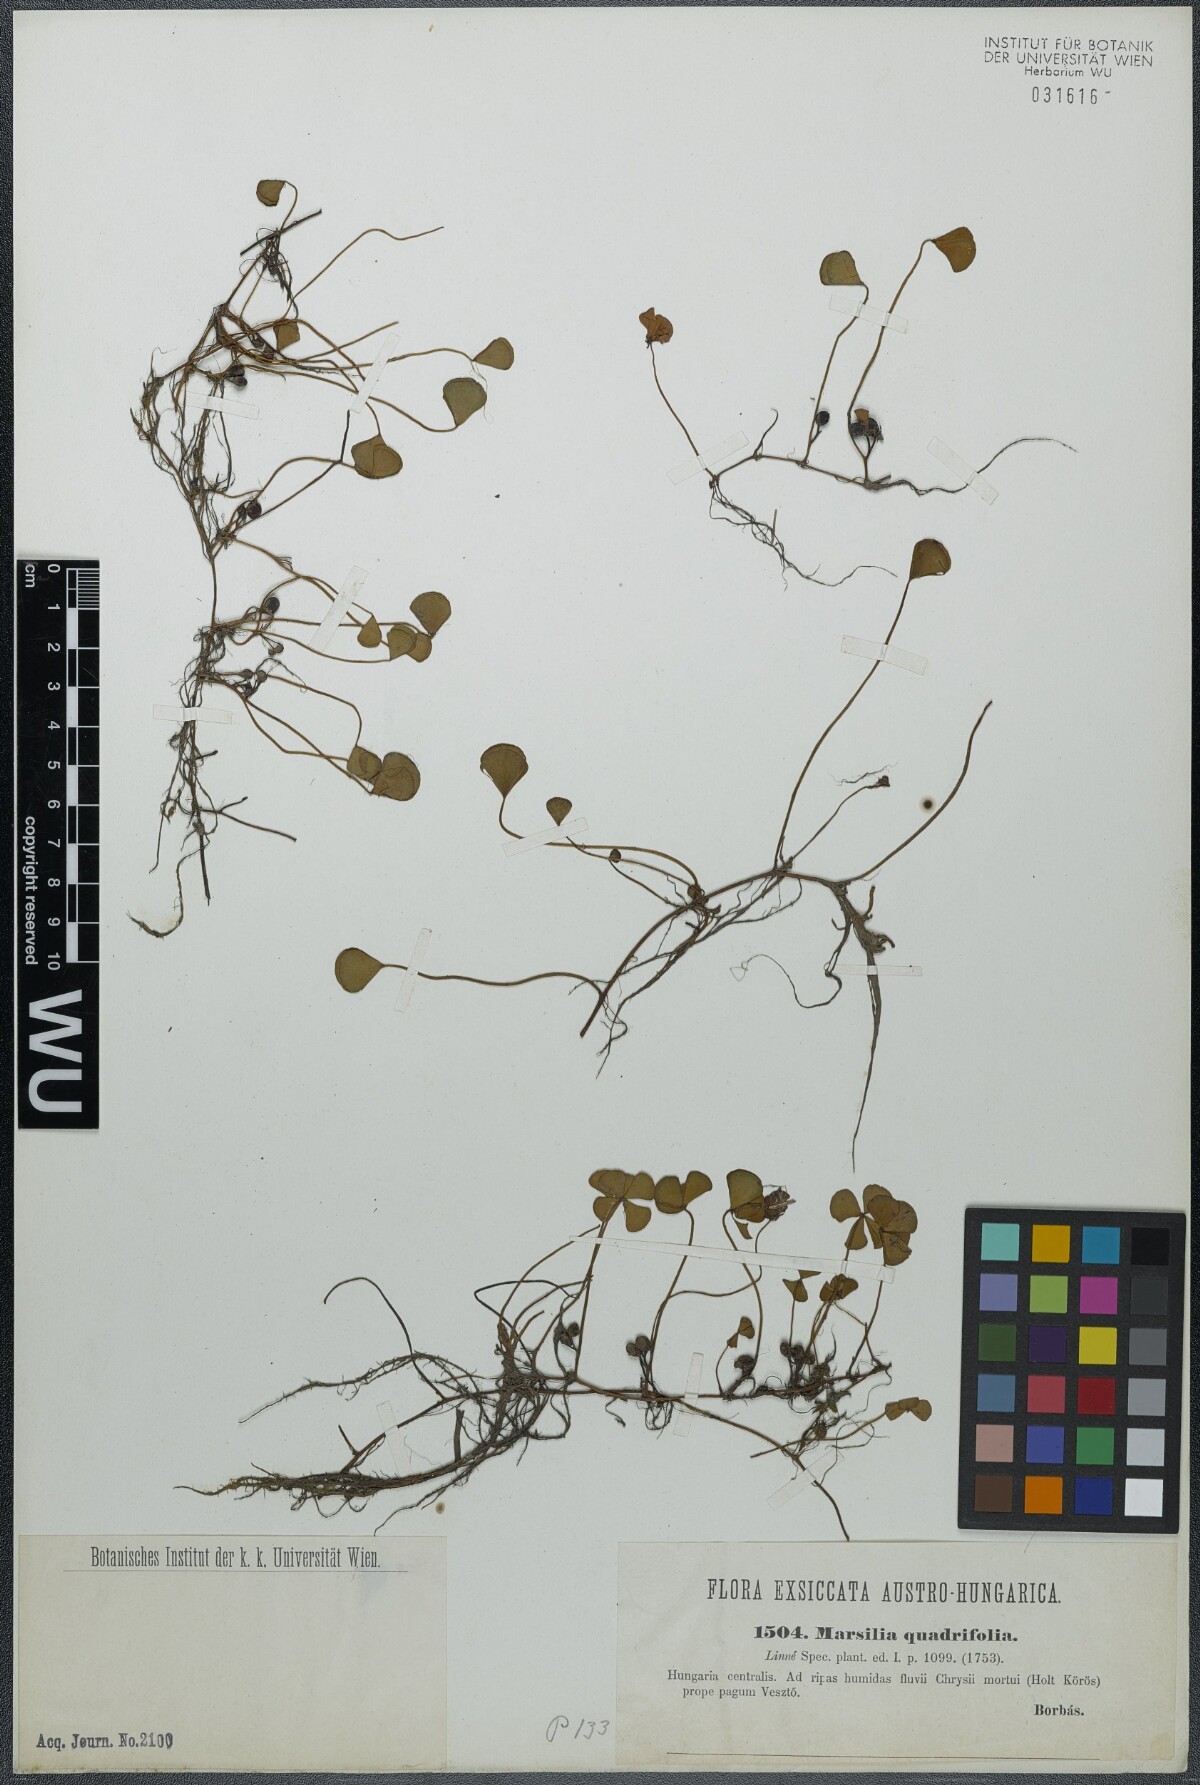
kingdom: Plantae
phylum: Tracheophyta
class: Polypodiopsida
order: Salviniales
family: Marsileaceae
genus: Marsilea
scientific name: Marsilea quadrifolia
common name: Water shamrock
